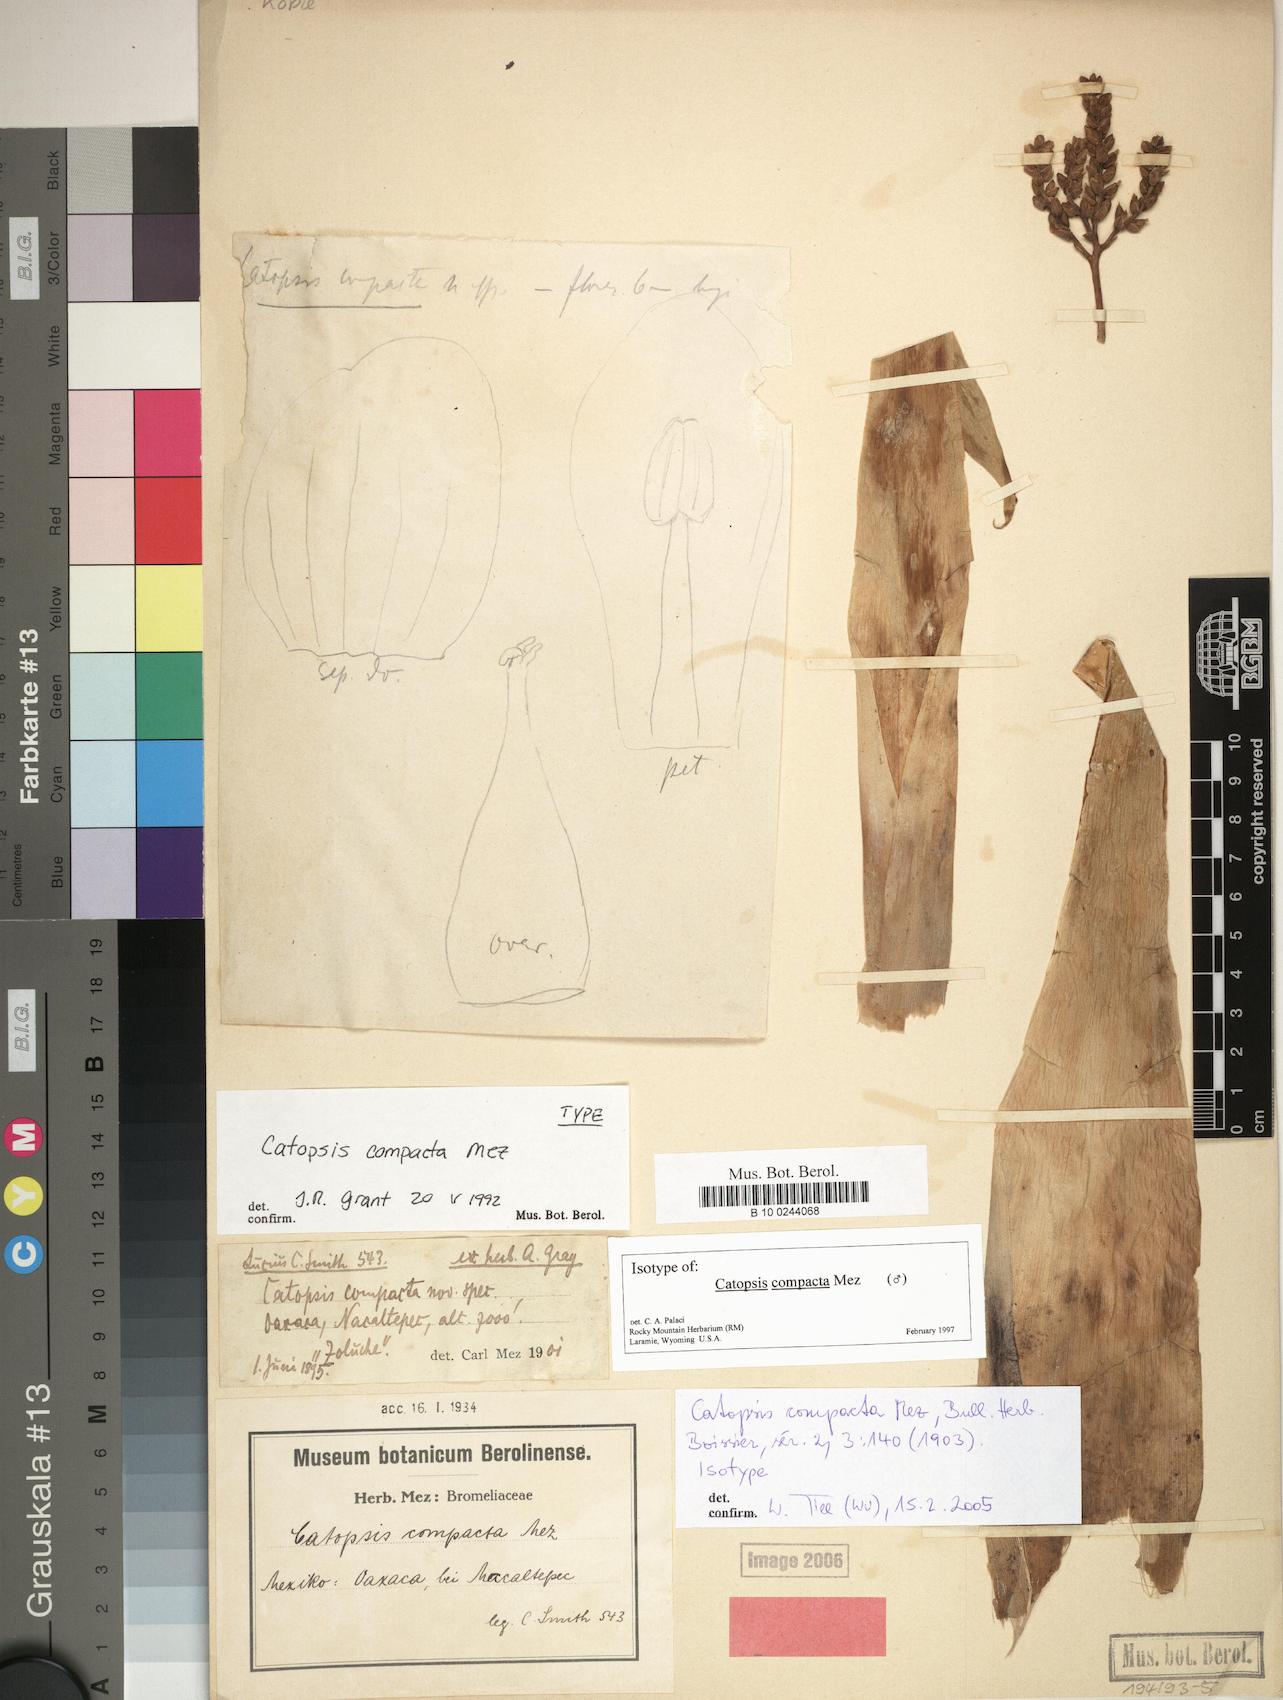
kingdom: Plantae
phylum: Tracheophyta
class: Liliopsida
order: Poales
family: Bromeliaceae
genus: Catopsis
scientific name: Catopsis compacta
